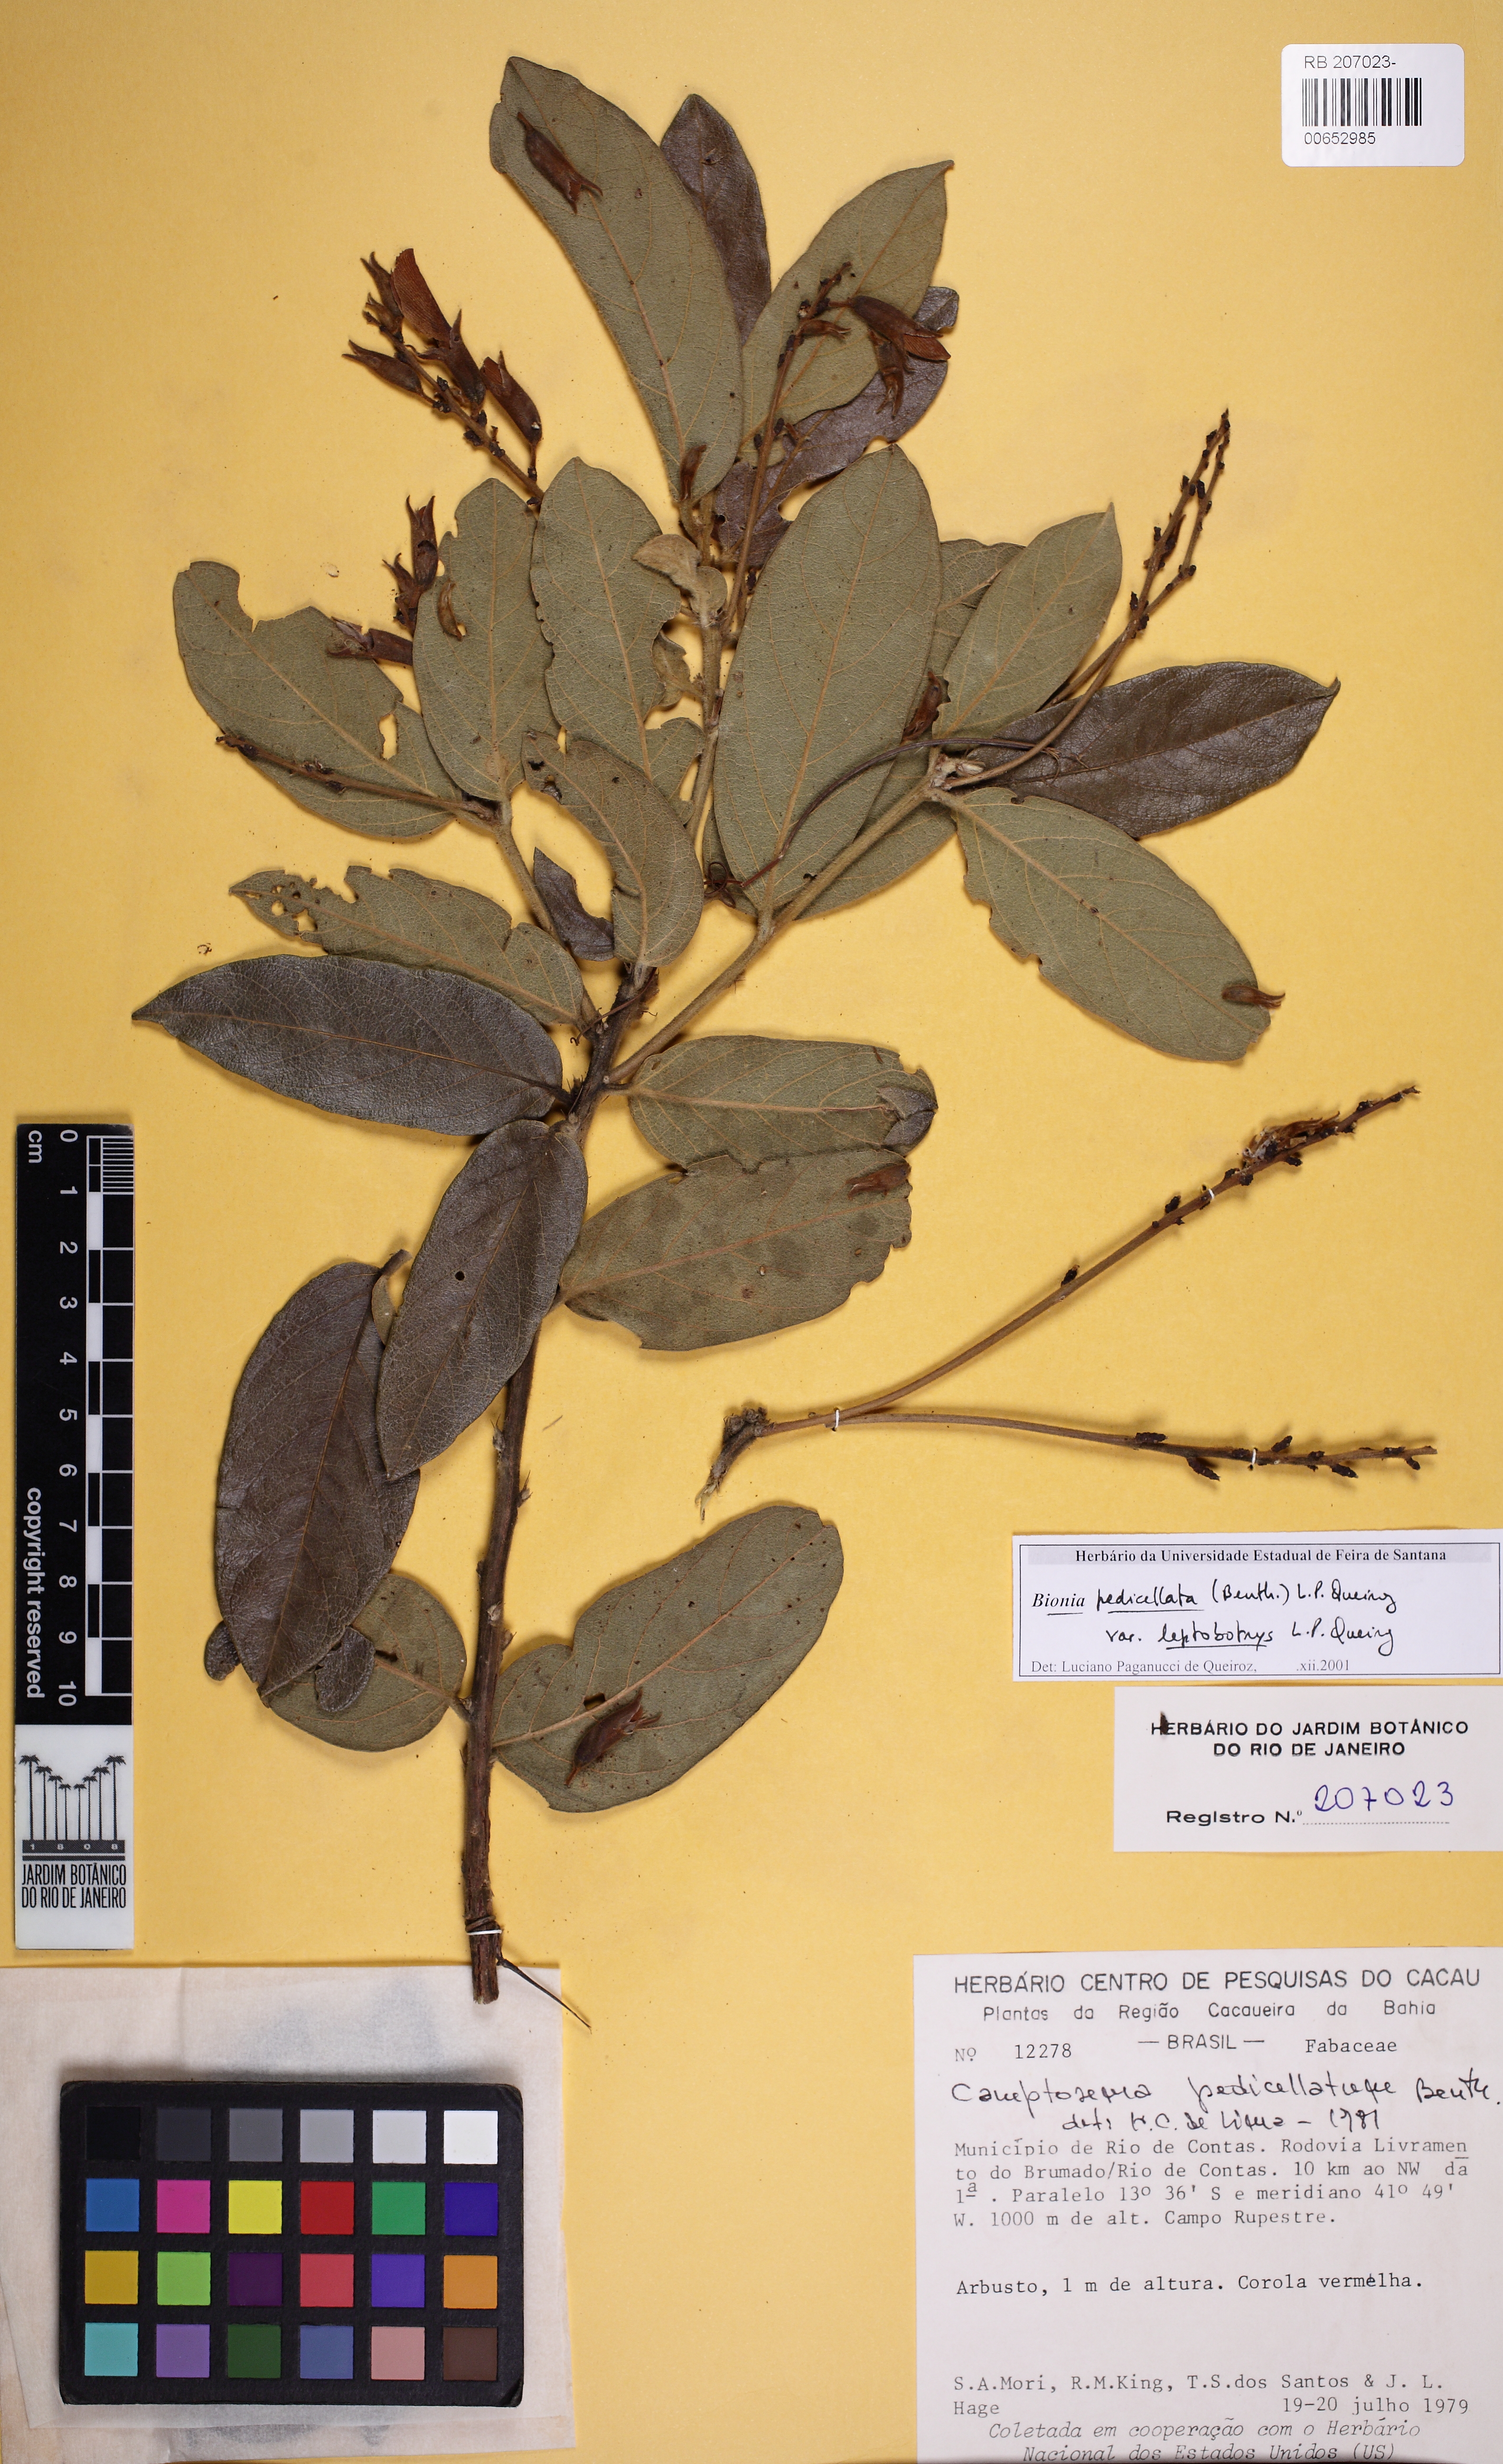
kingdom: Plantae
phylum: Tracheophyta
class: Magnoliopsida
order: Fabales
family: Fabaceae
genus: Camptosema
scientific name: Camptosema pedicellatum
